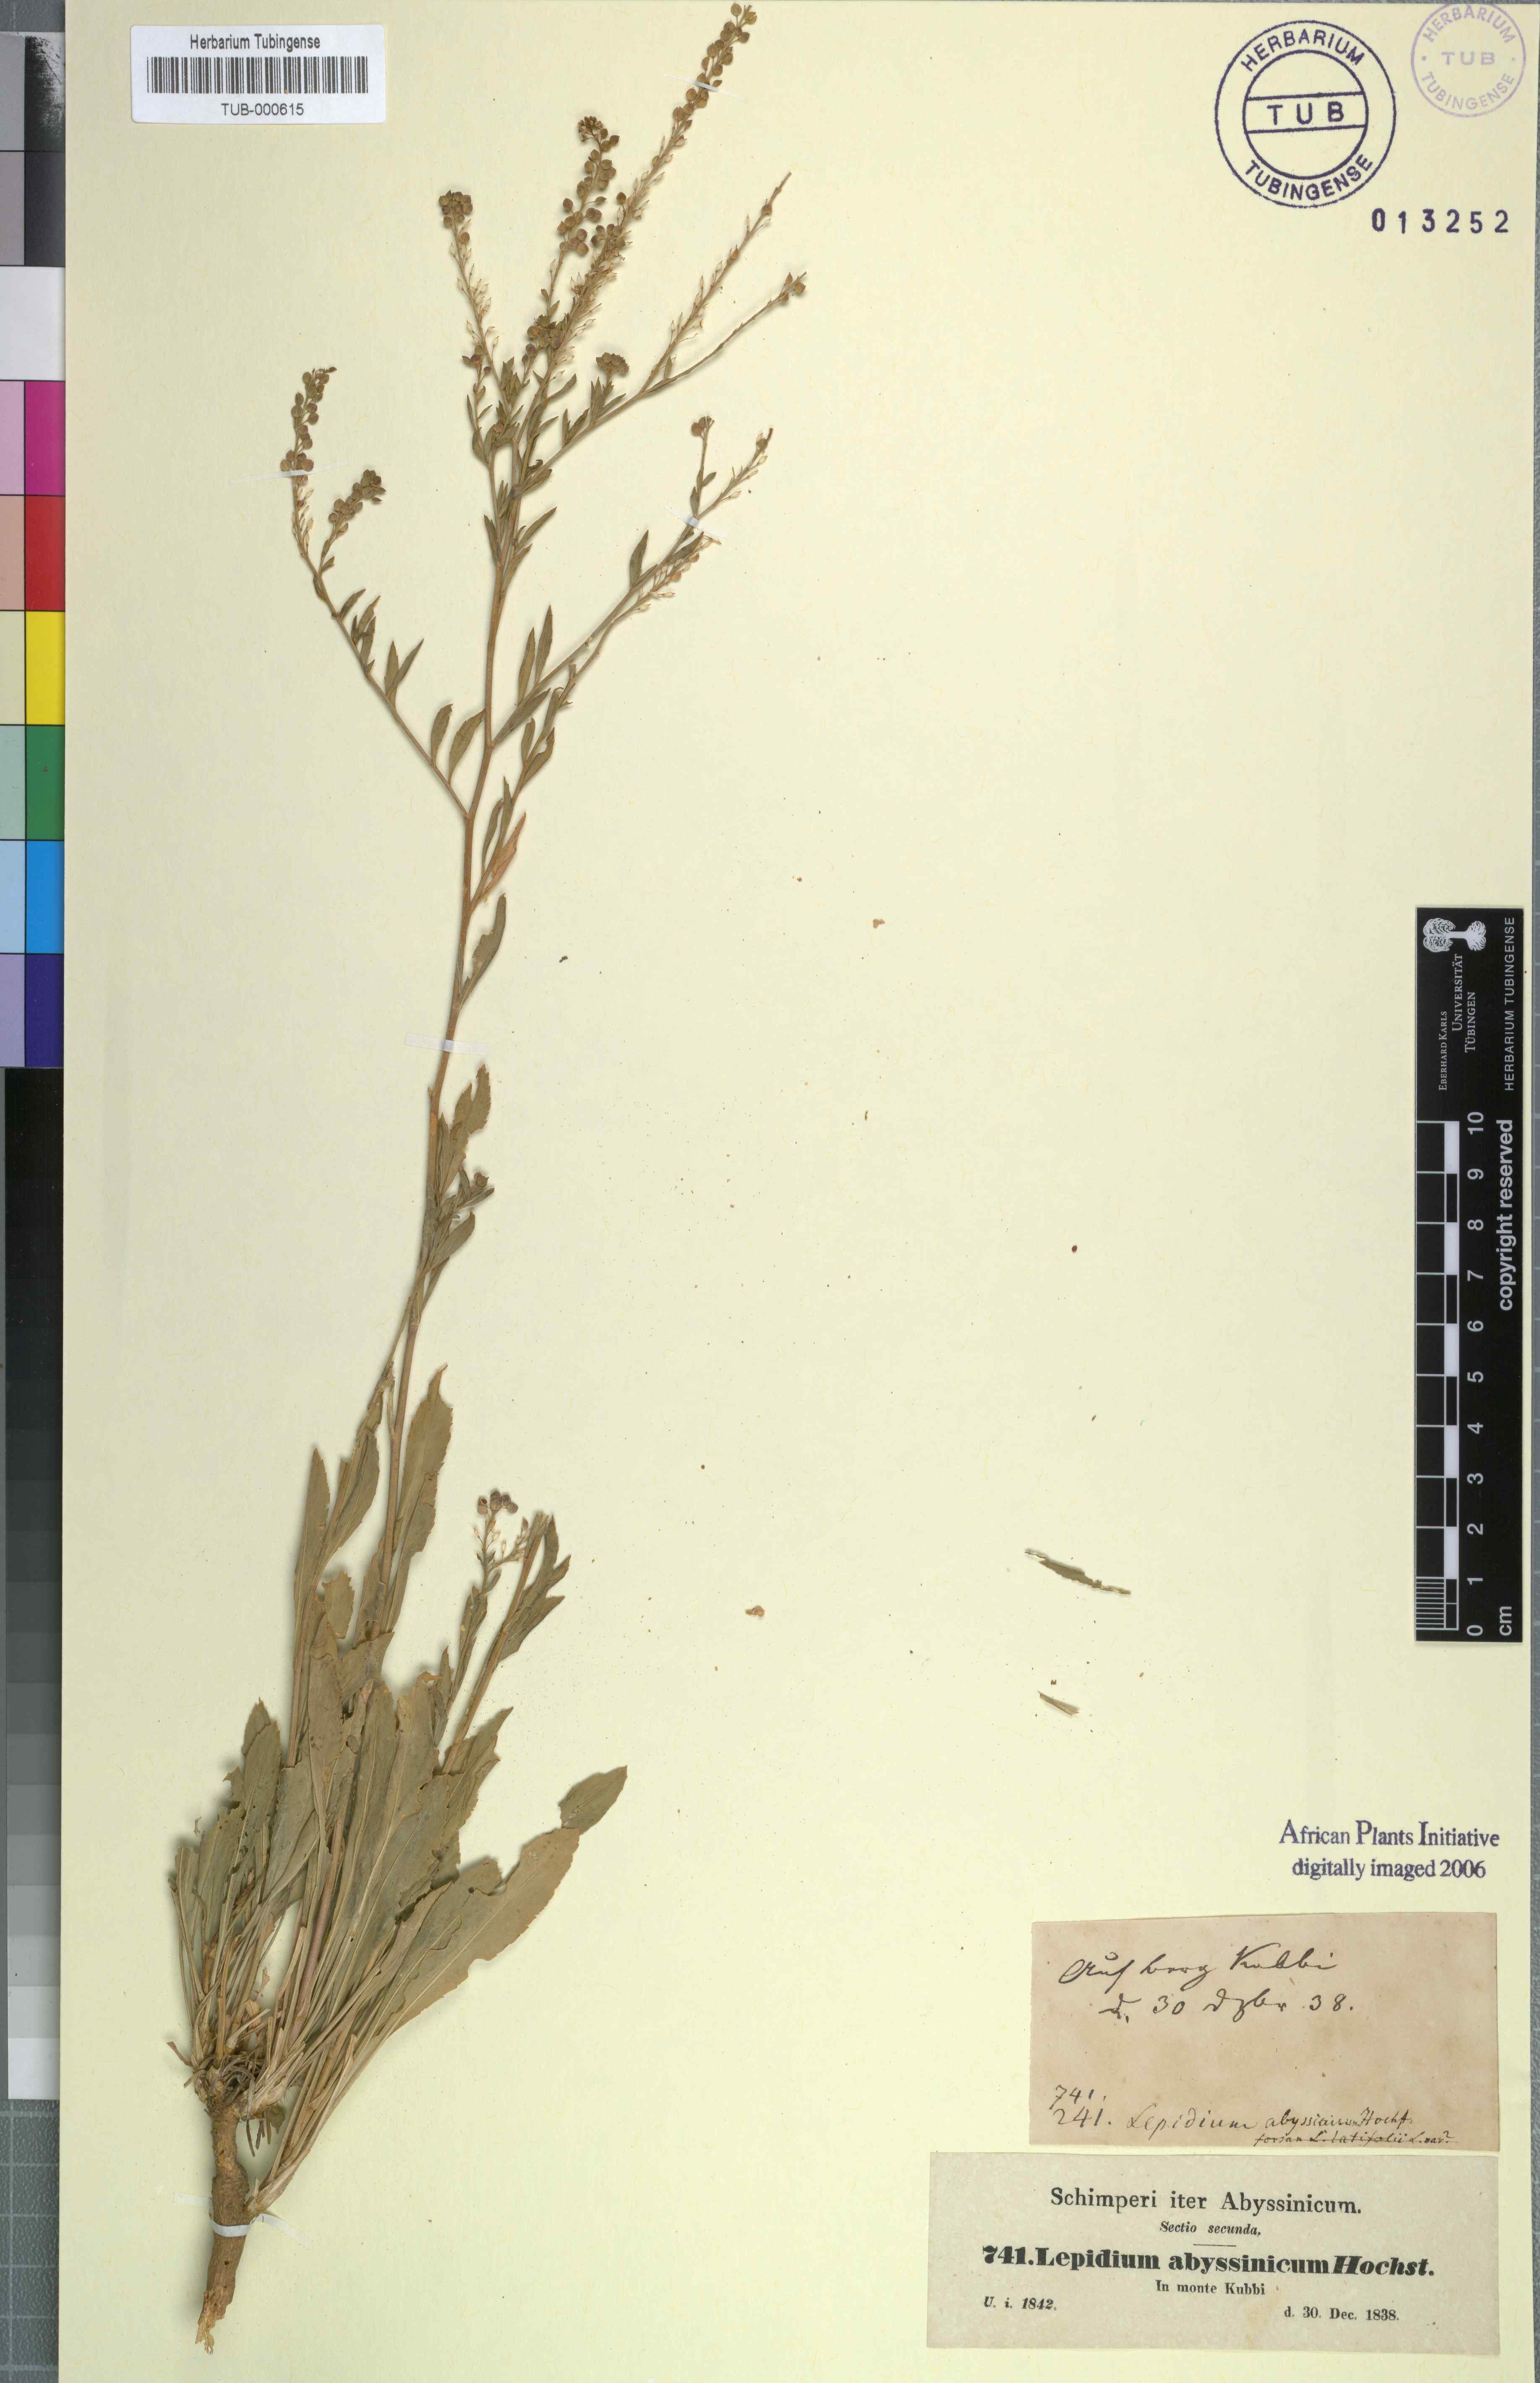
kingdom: Plantae
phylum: Tracheophyta
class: Magnoliopsida
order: Brassicales
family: Brassicaceae
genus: Lepidium
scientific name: Lepidium armoracia
